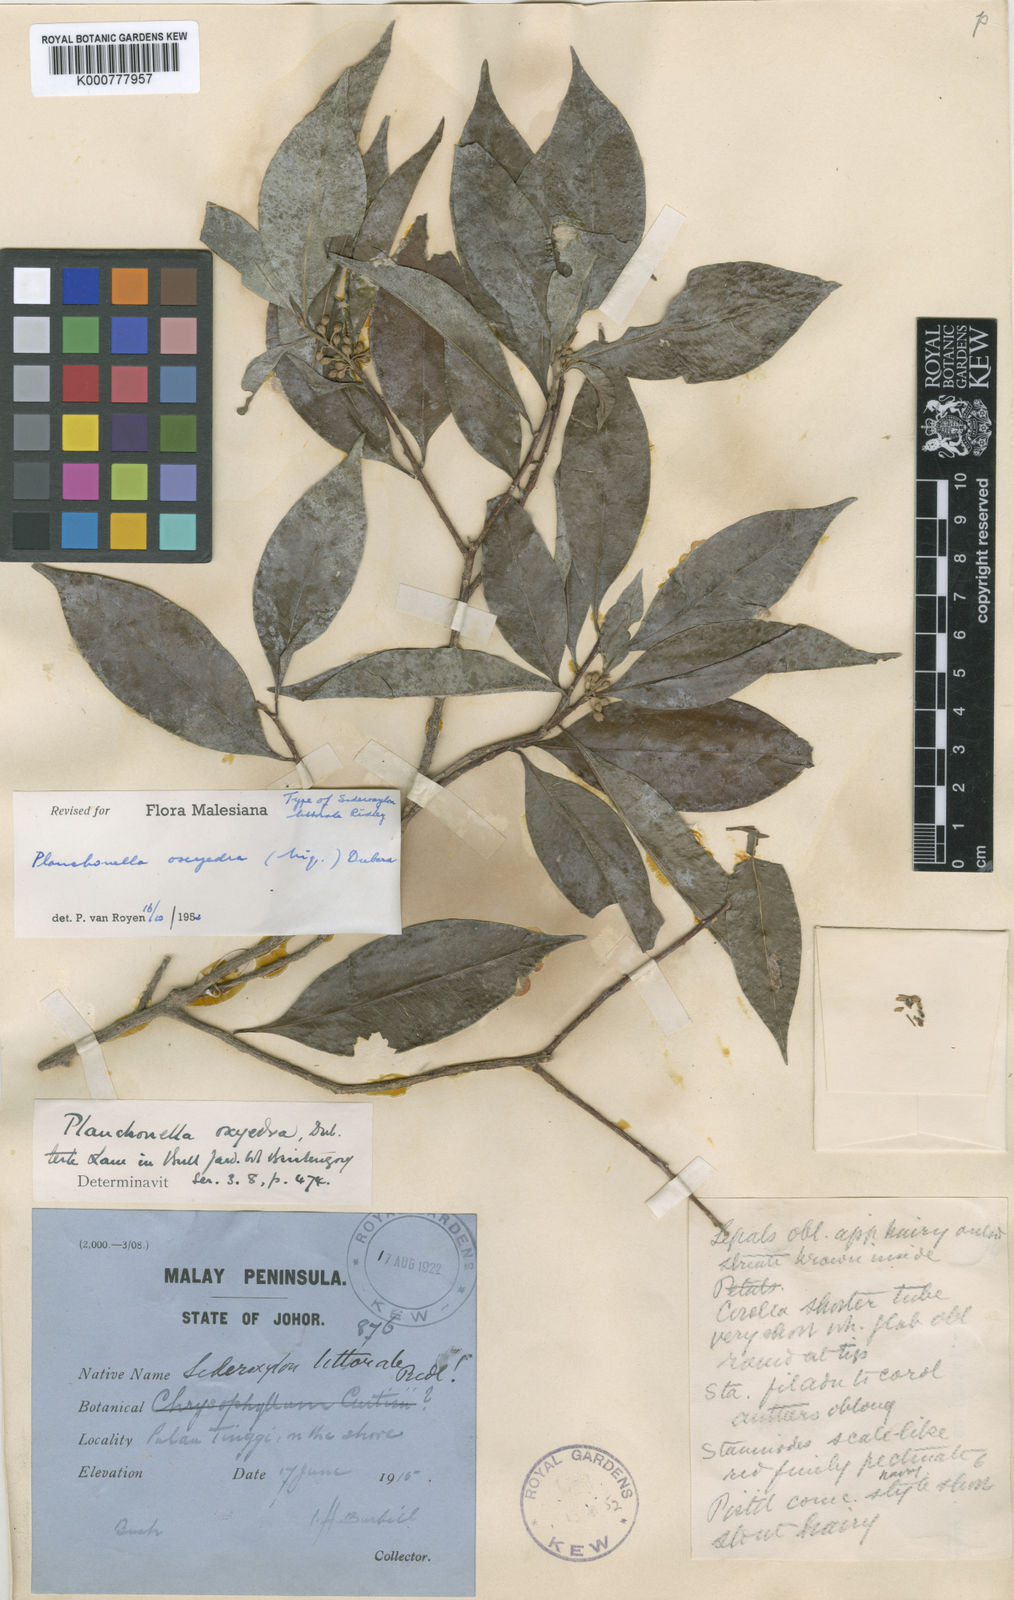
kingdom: Plantae
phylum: Tracheophyta
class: Magnoliopsida
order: Ericales
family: Sapotaceae
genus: Planchonella
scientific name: Planchonella chartacea
